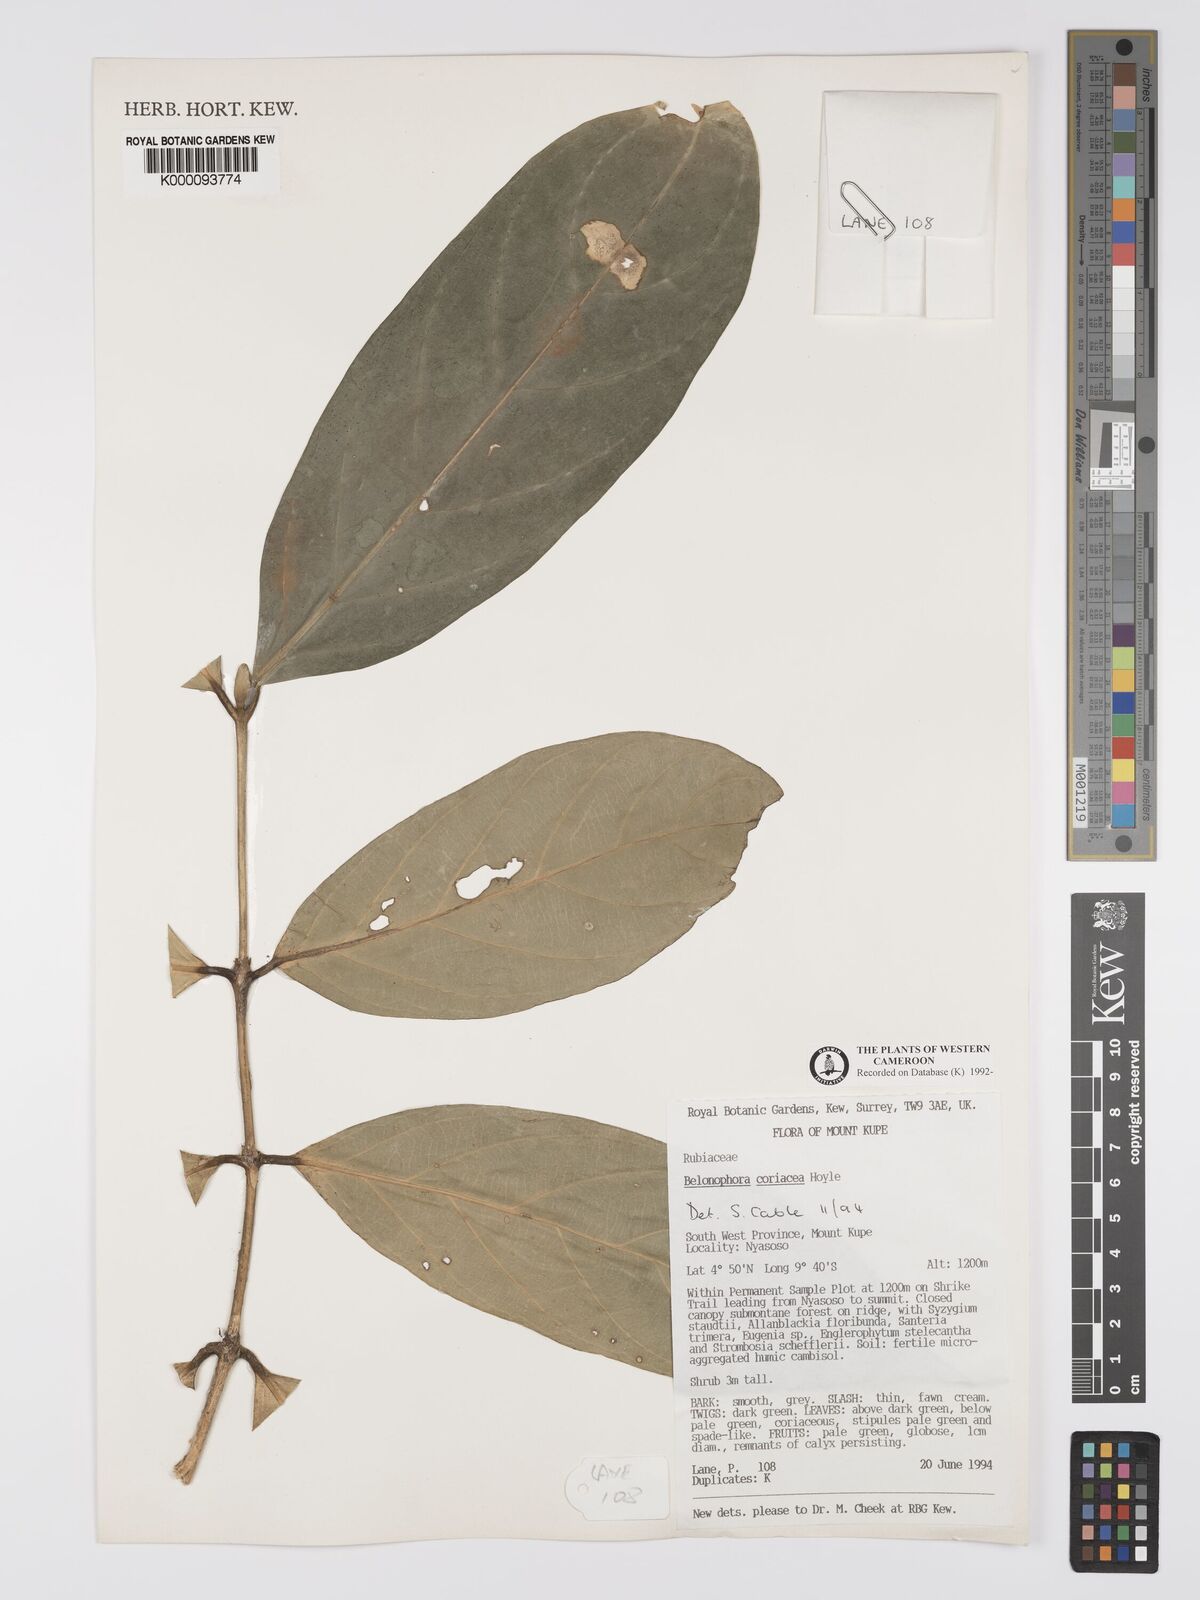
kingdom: Plantae
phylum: Tracheophyta
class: Magnoliopsida
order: Gentianales
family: Rubiaceae
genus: Belonophora
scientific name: Belonophora coriacea
